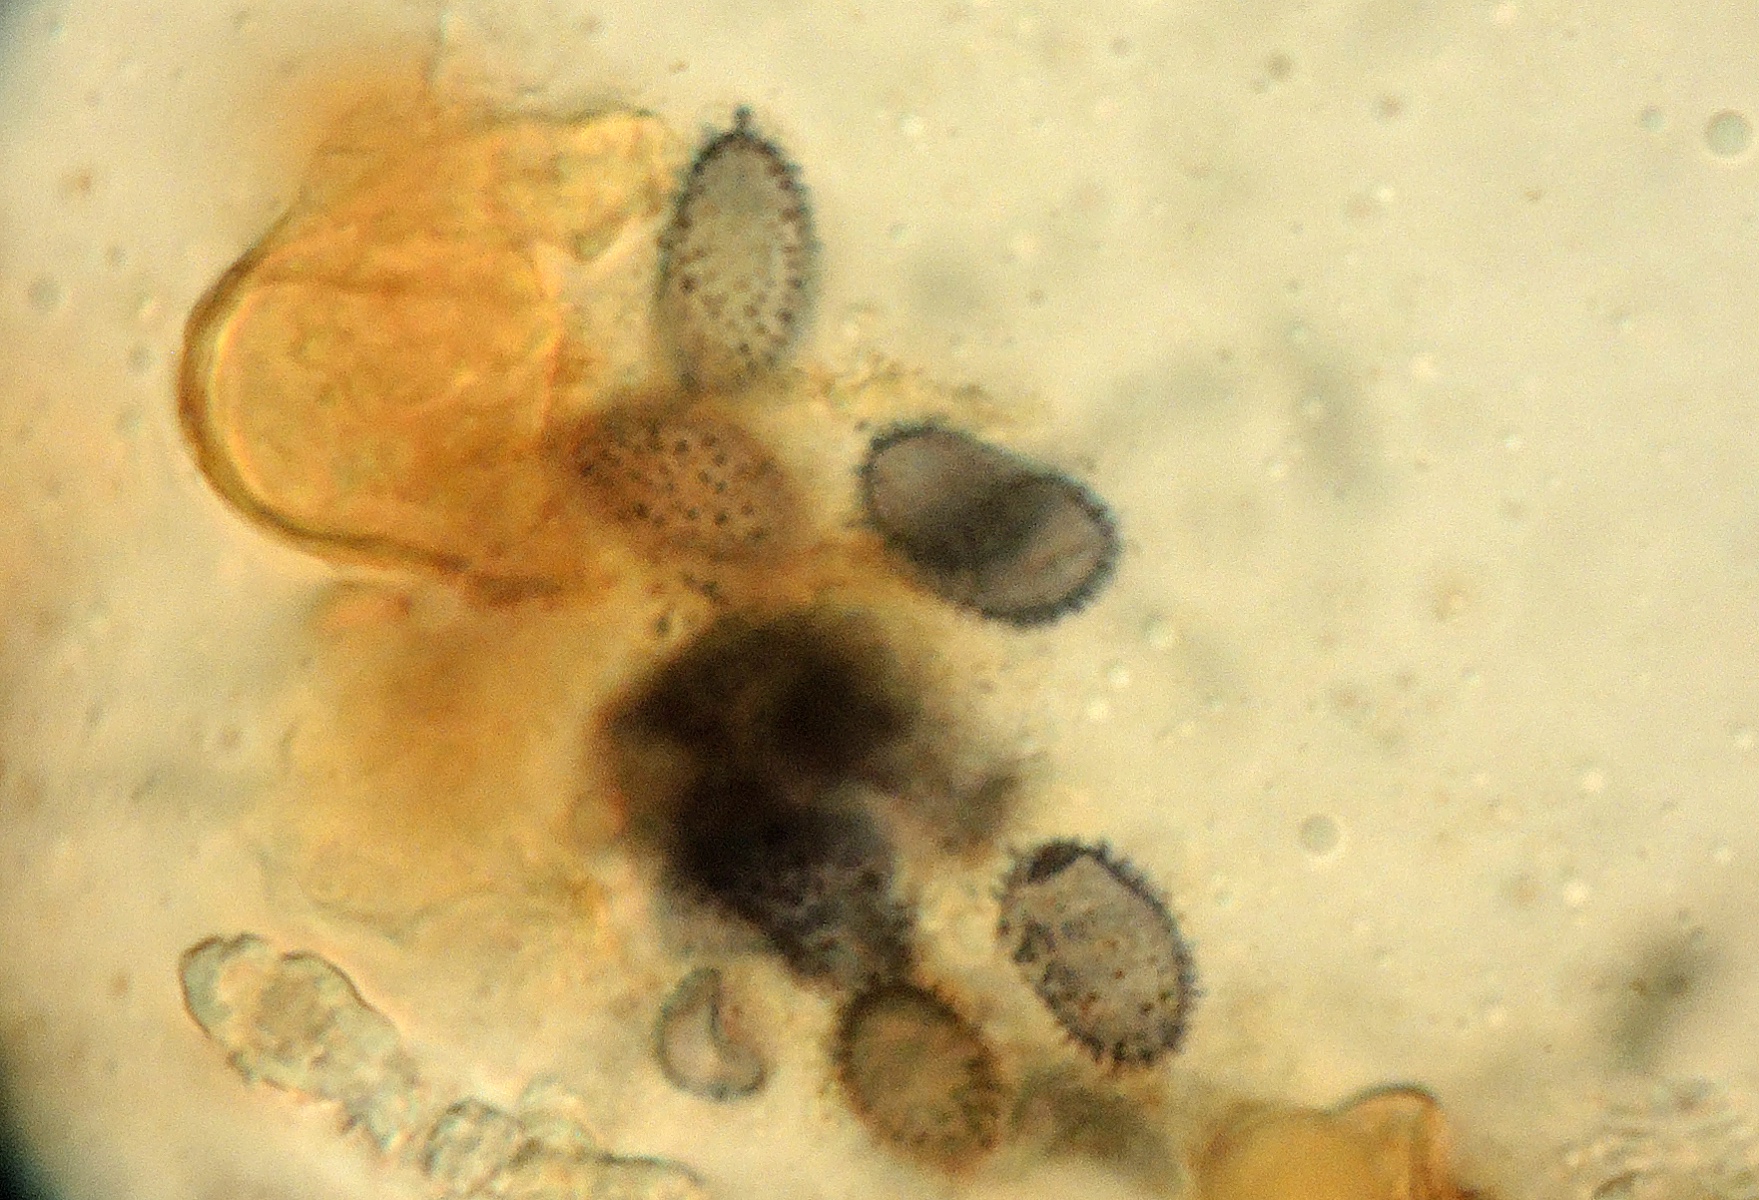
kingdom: Fungi
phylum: Basidiomycota
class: Agaricomycetes
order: Russulales
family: Stereaceae
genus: Acanthobasidium
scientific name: Acanthobasidium delicatum
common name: tagrør-skiveskorpe
